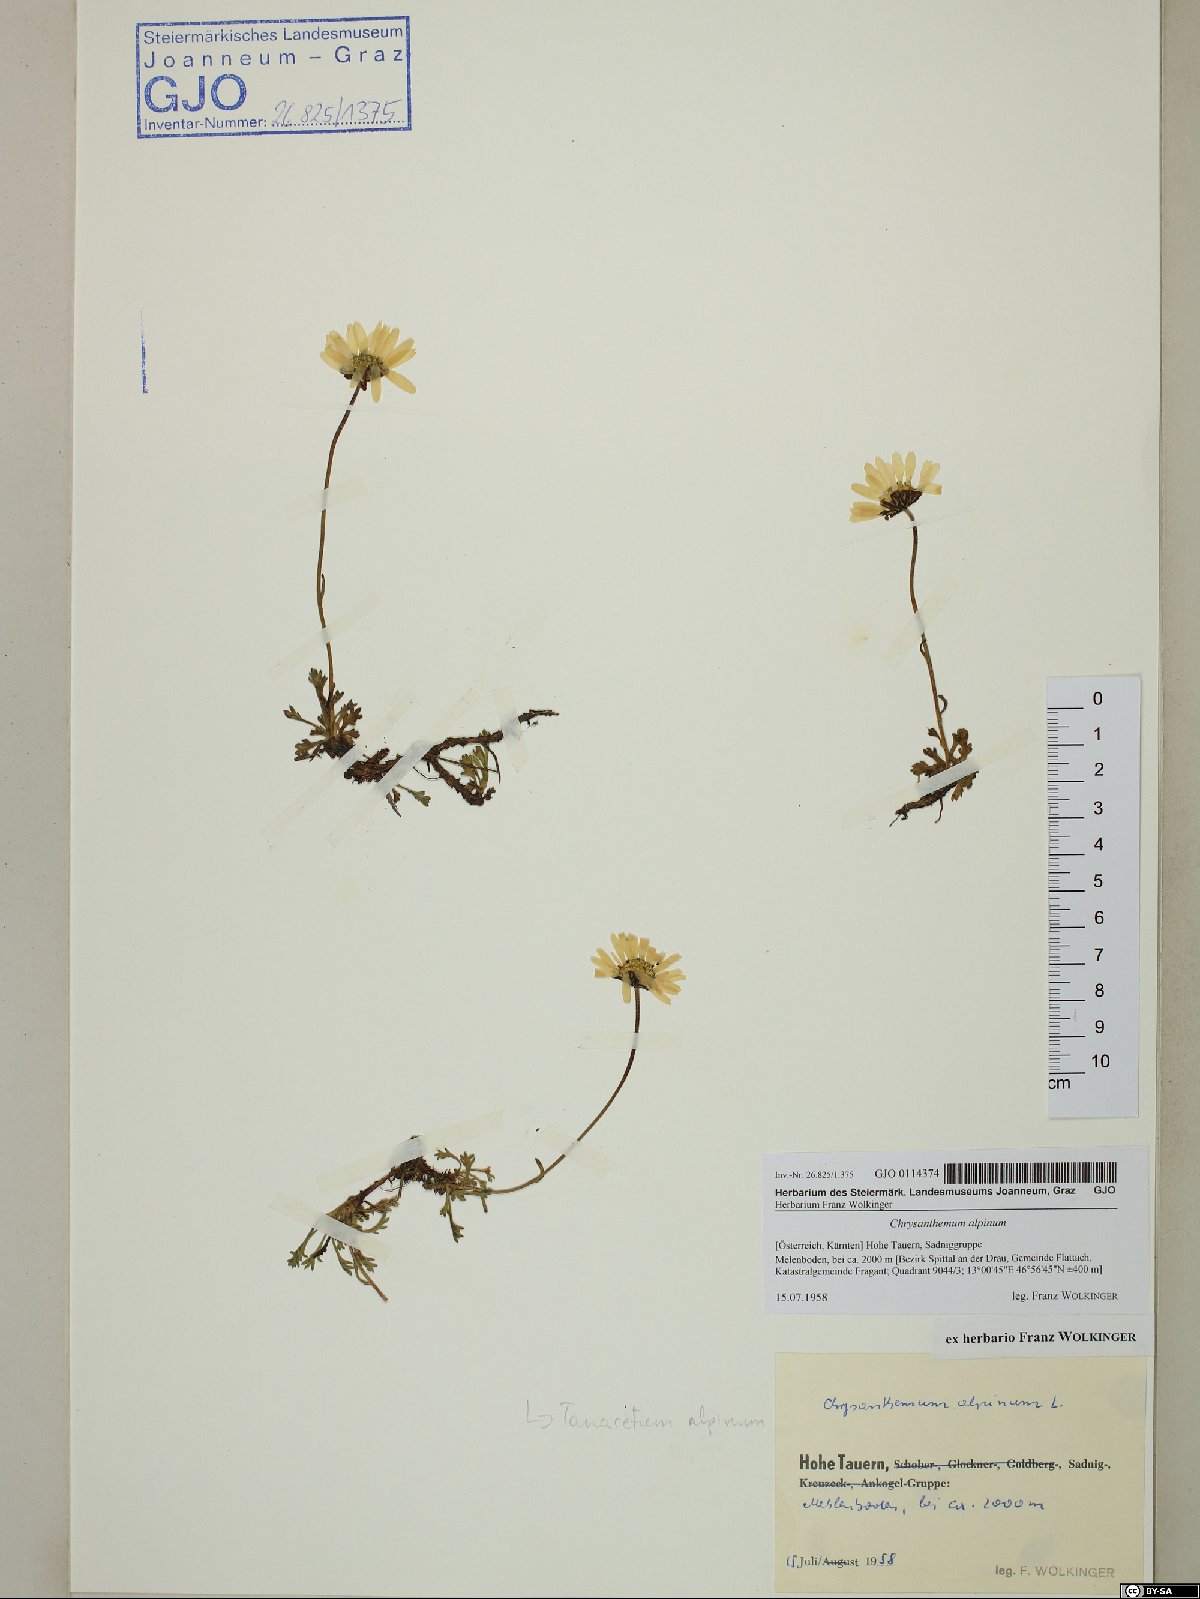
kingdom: Plantae
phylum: Tracheophyta
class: Magnoliopsida
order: Asterales
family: Asteraceae
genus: Leucanthemopsis
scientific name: Leucanthemopsis alpina
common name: Alpine moon daisy
